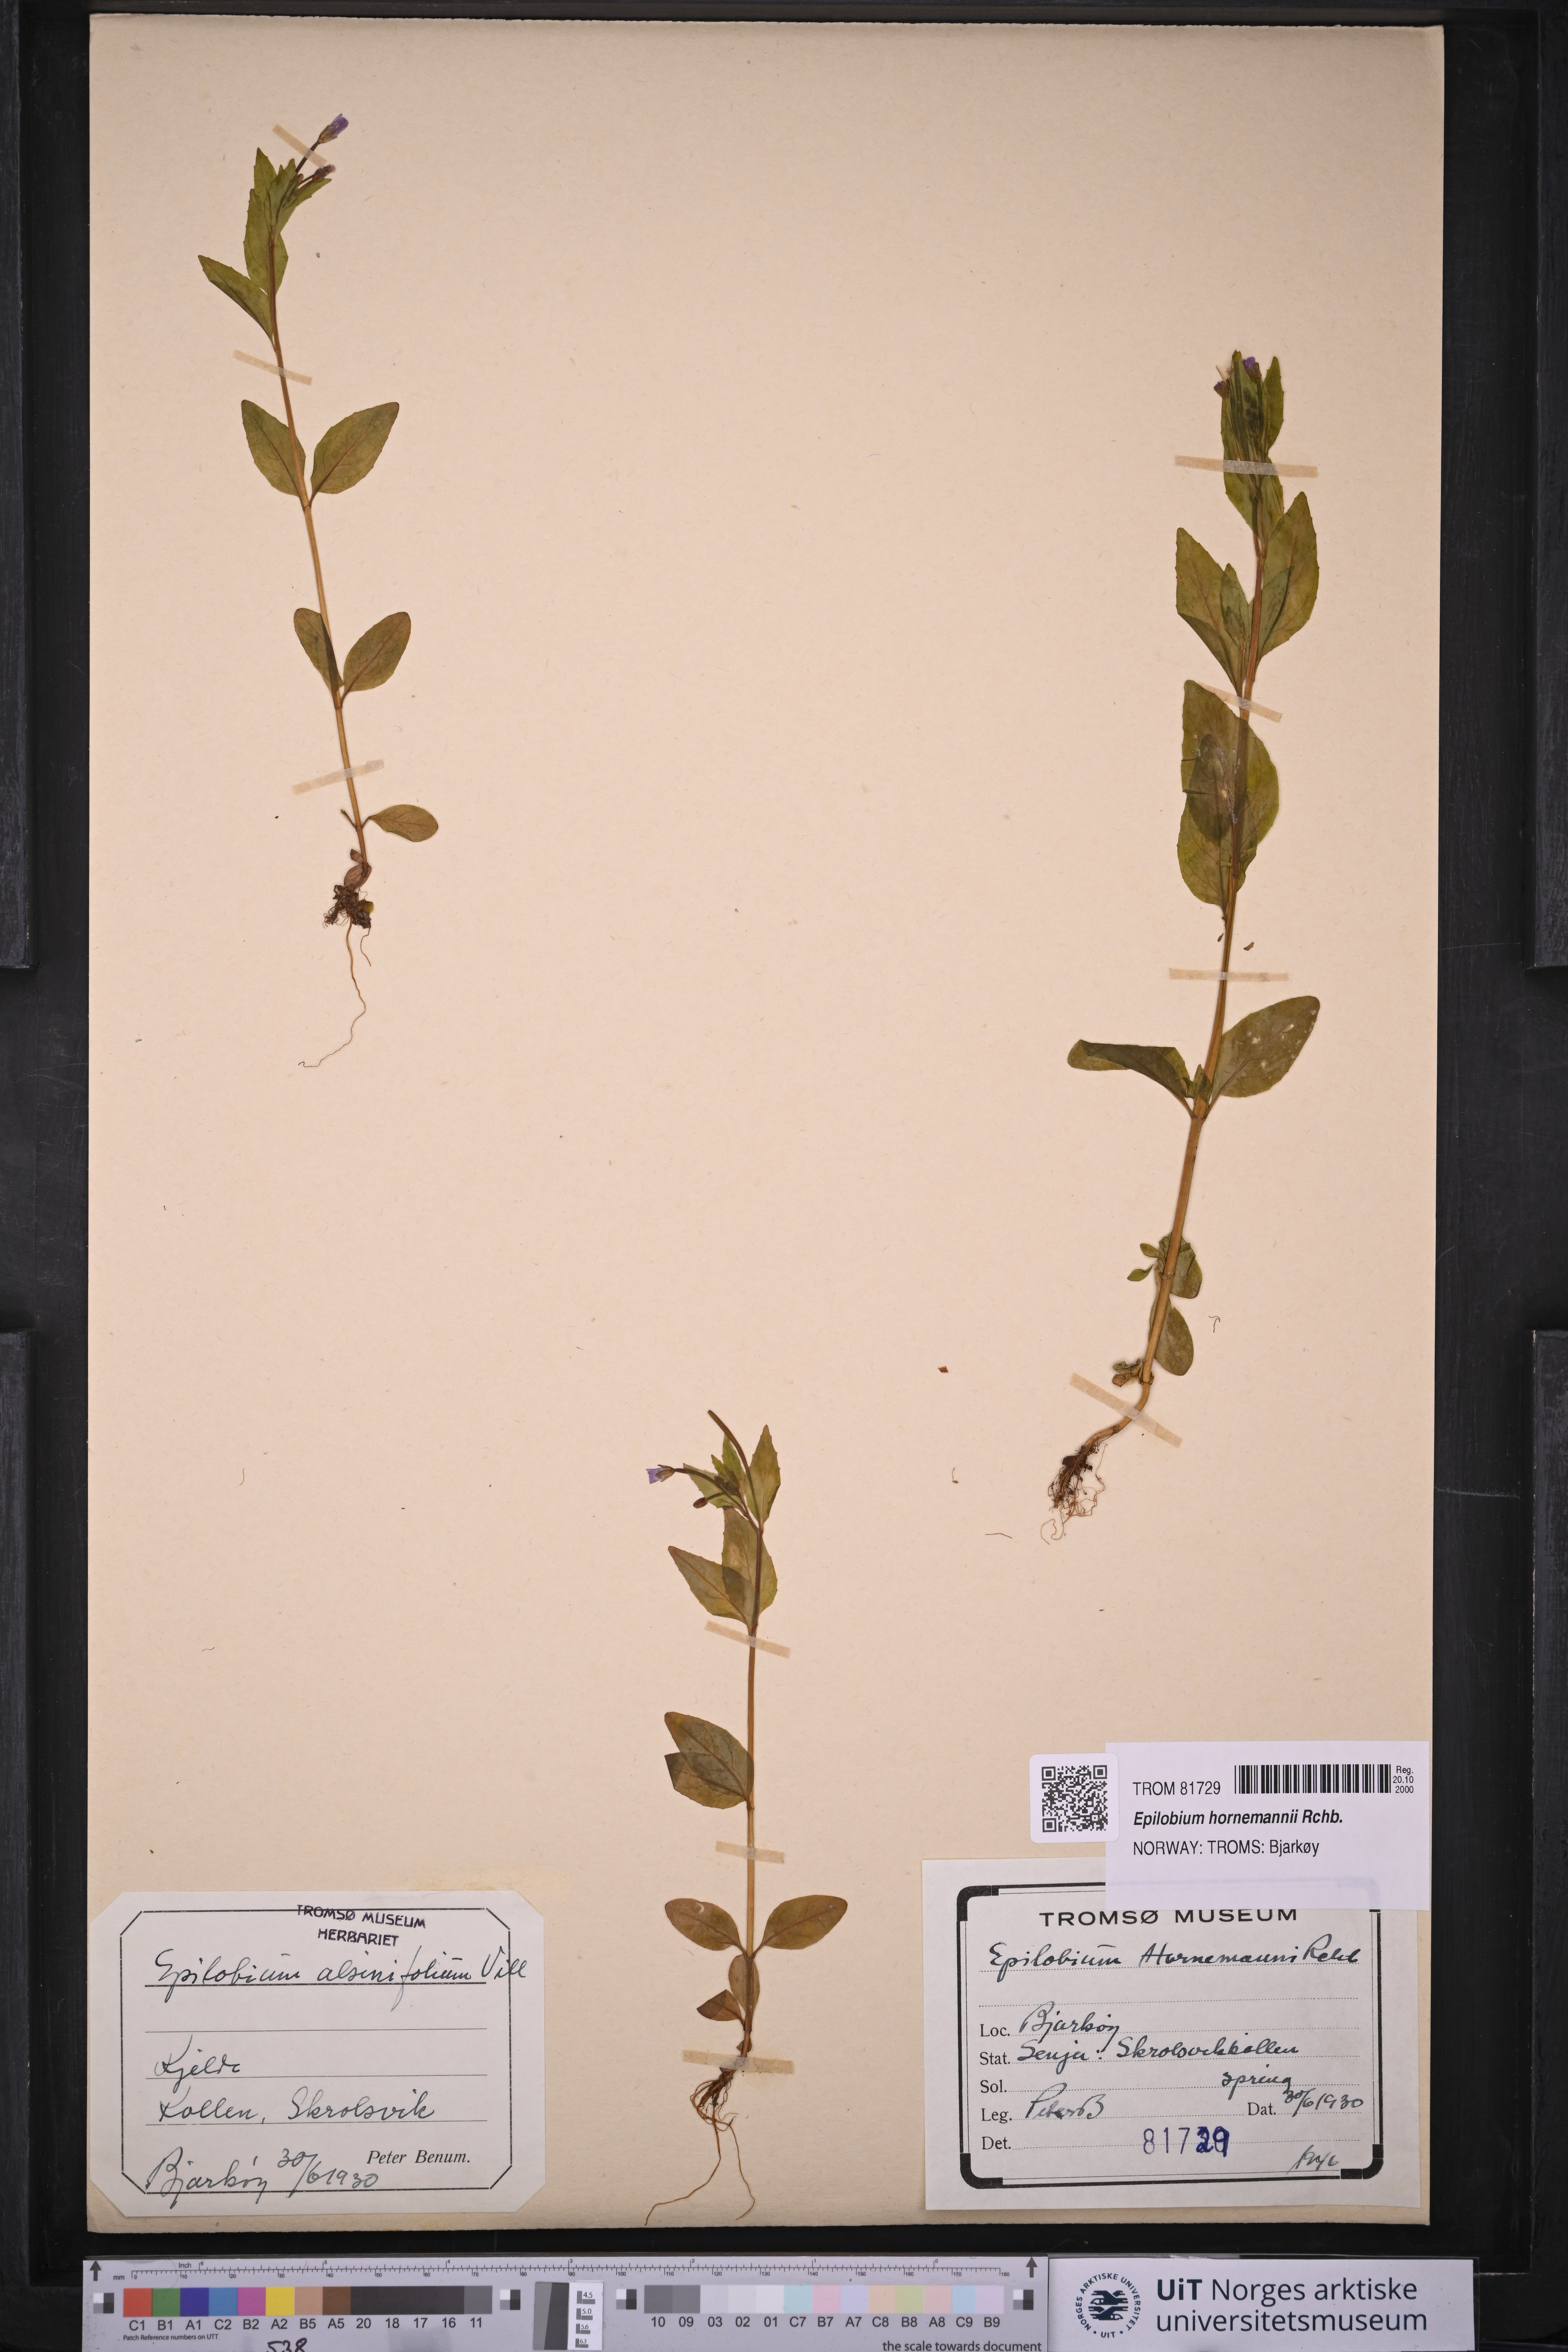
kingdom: Plantae
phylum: Tracheophyta
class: Magnoliopsida
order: Myrtales
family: Onagraceae
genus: Epilobium
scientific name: Epilobium hornemannii
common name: Hornemann's willowherb
